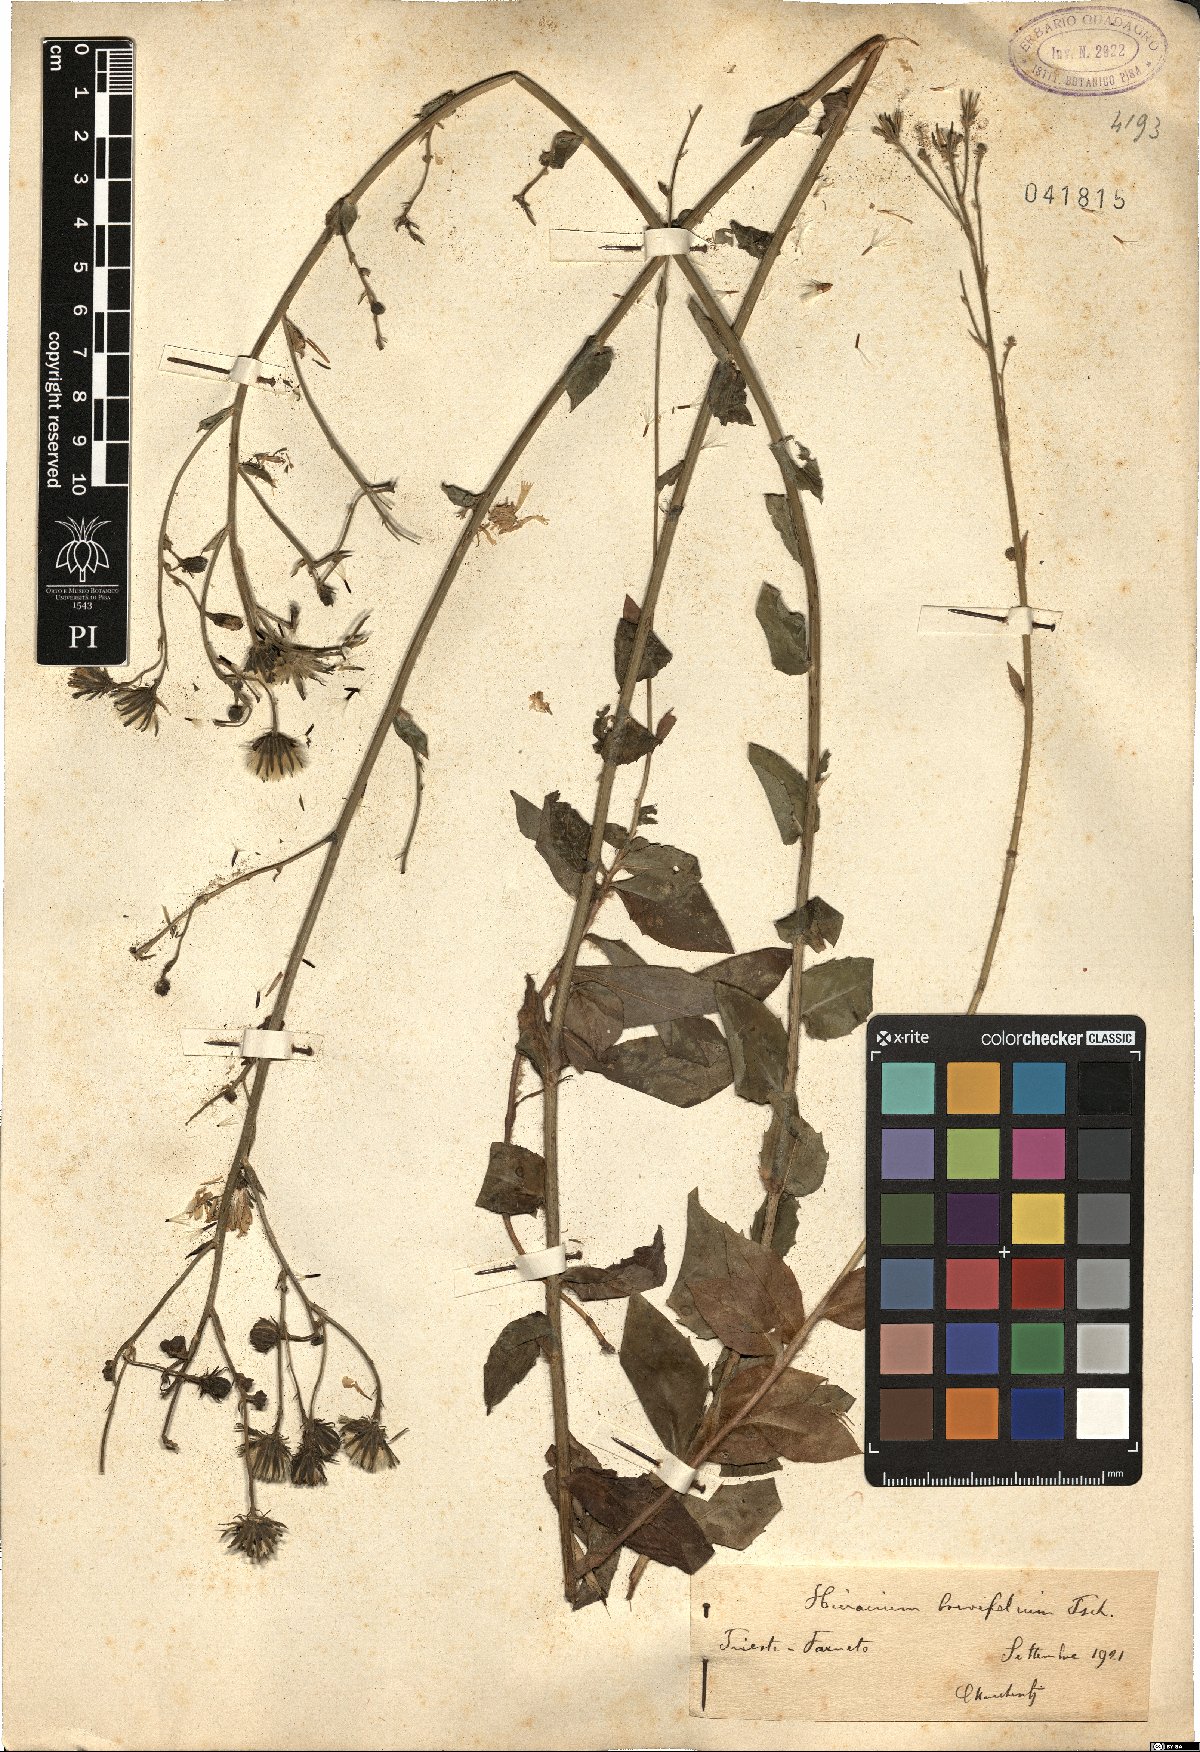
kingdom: Plantae
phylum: Tracheophyta
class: Magnoliopsida
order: Asterales
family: Asteraceae
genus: Hieracium
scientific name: Hieracium brevifolium
